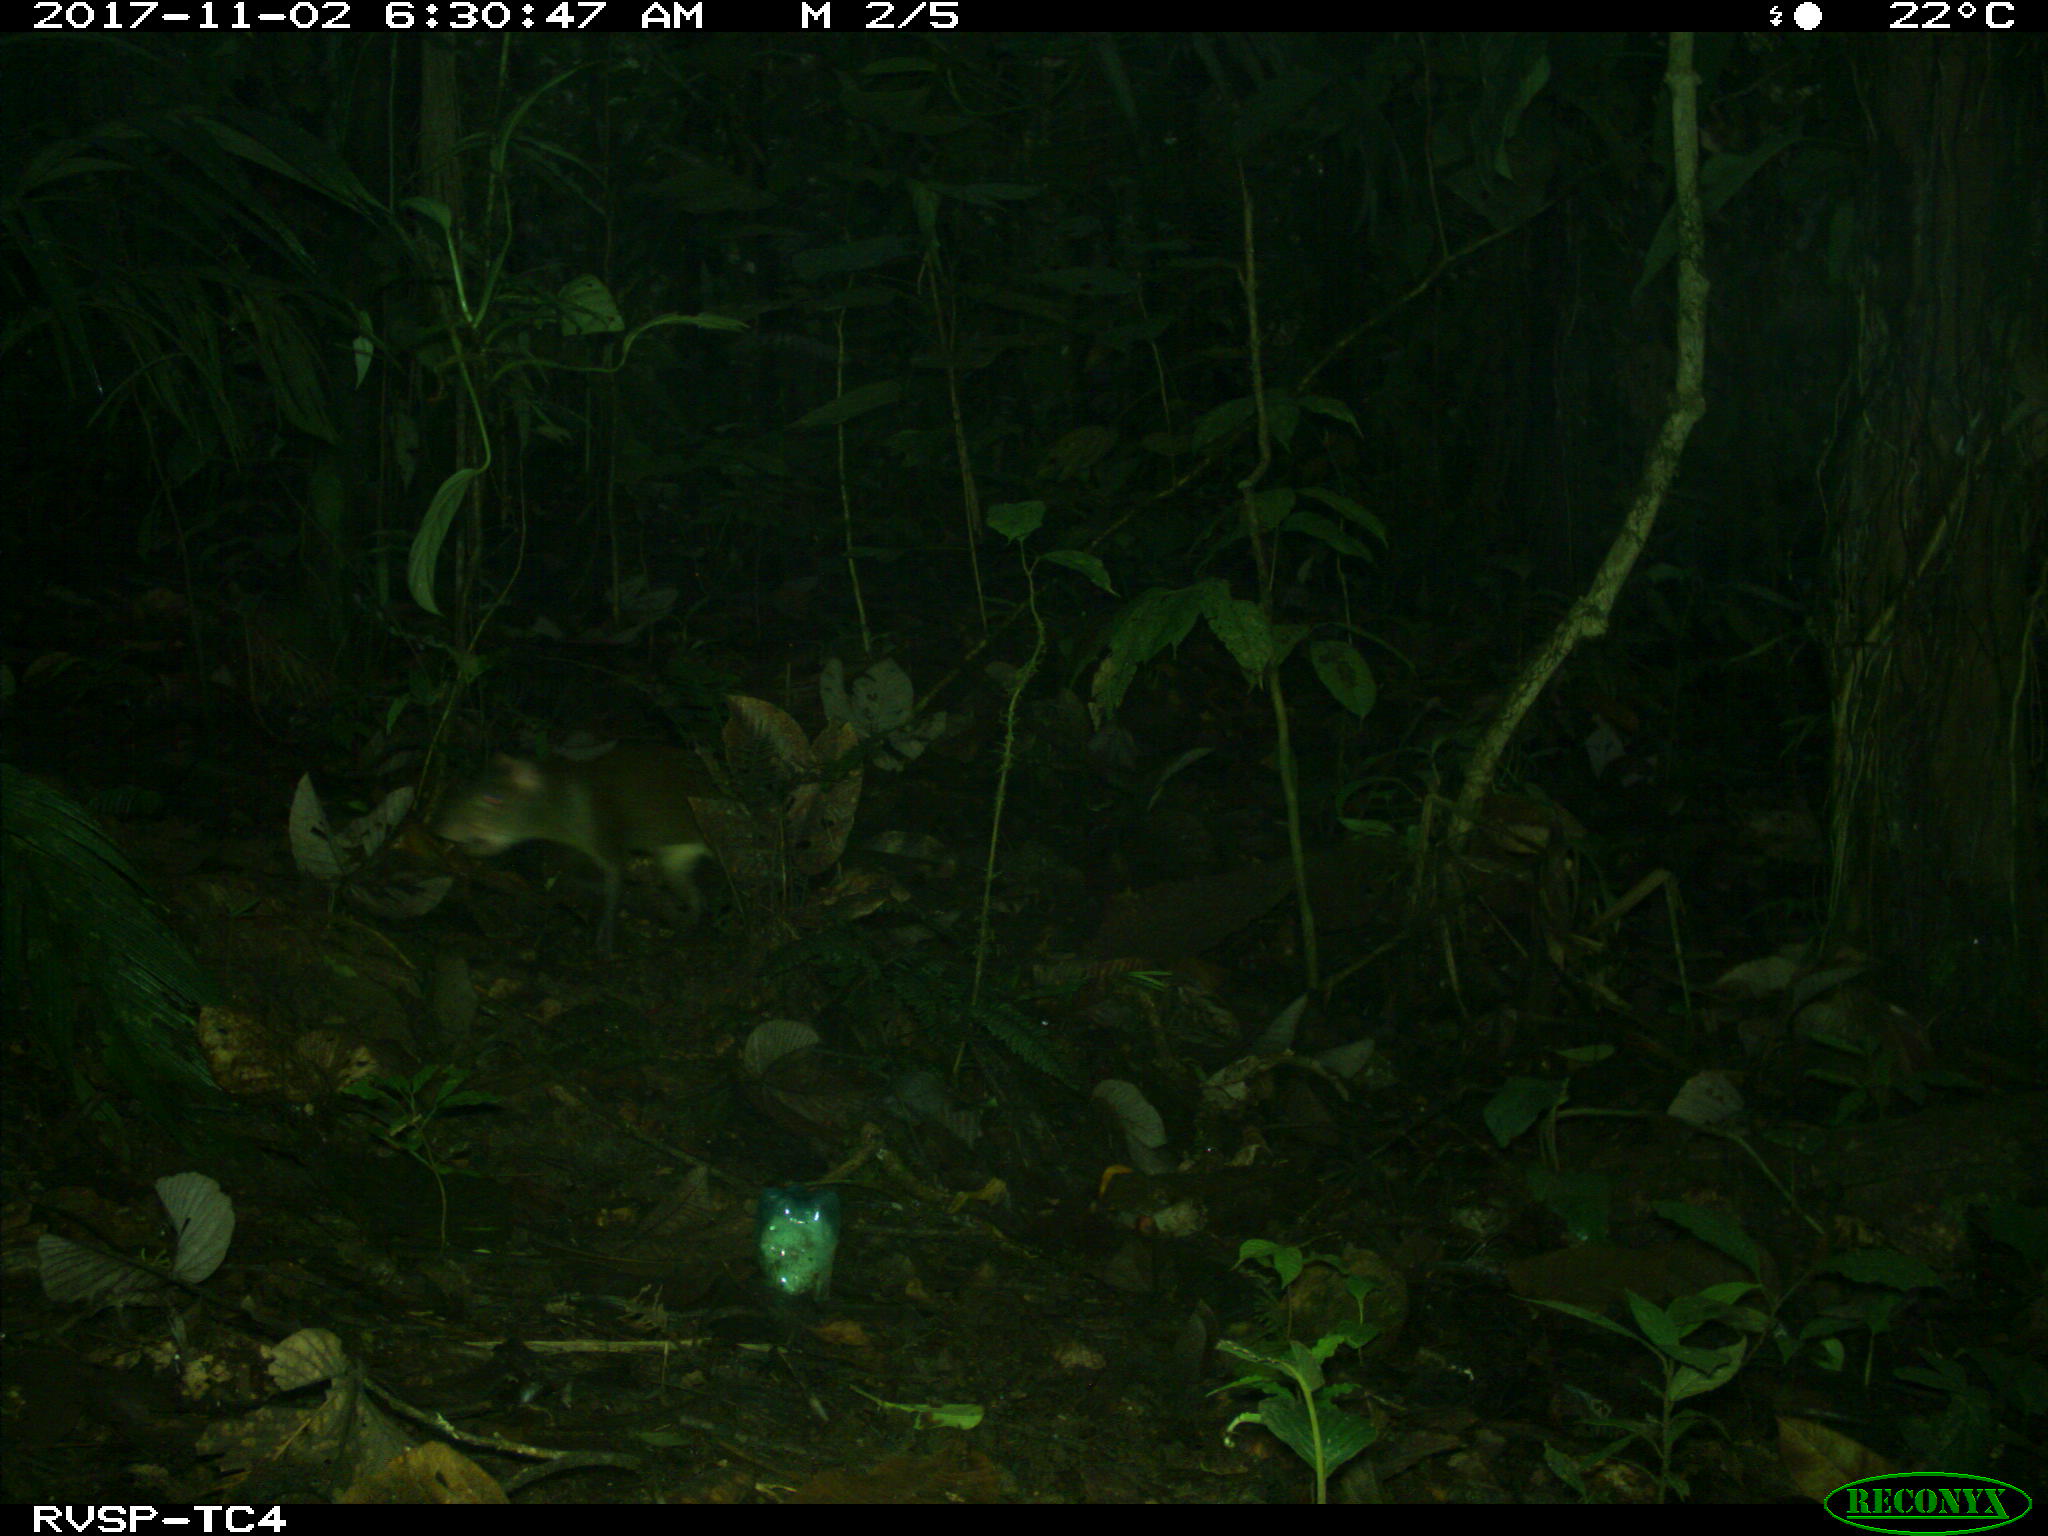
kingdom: Animalia
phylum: Chordata
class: Mammalia
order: Rodentia
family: Dasyproctidae
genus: Dasyprocta
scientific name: Dasyprocta punctata
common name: Central american agouti
